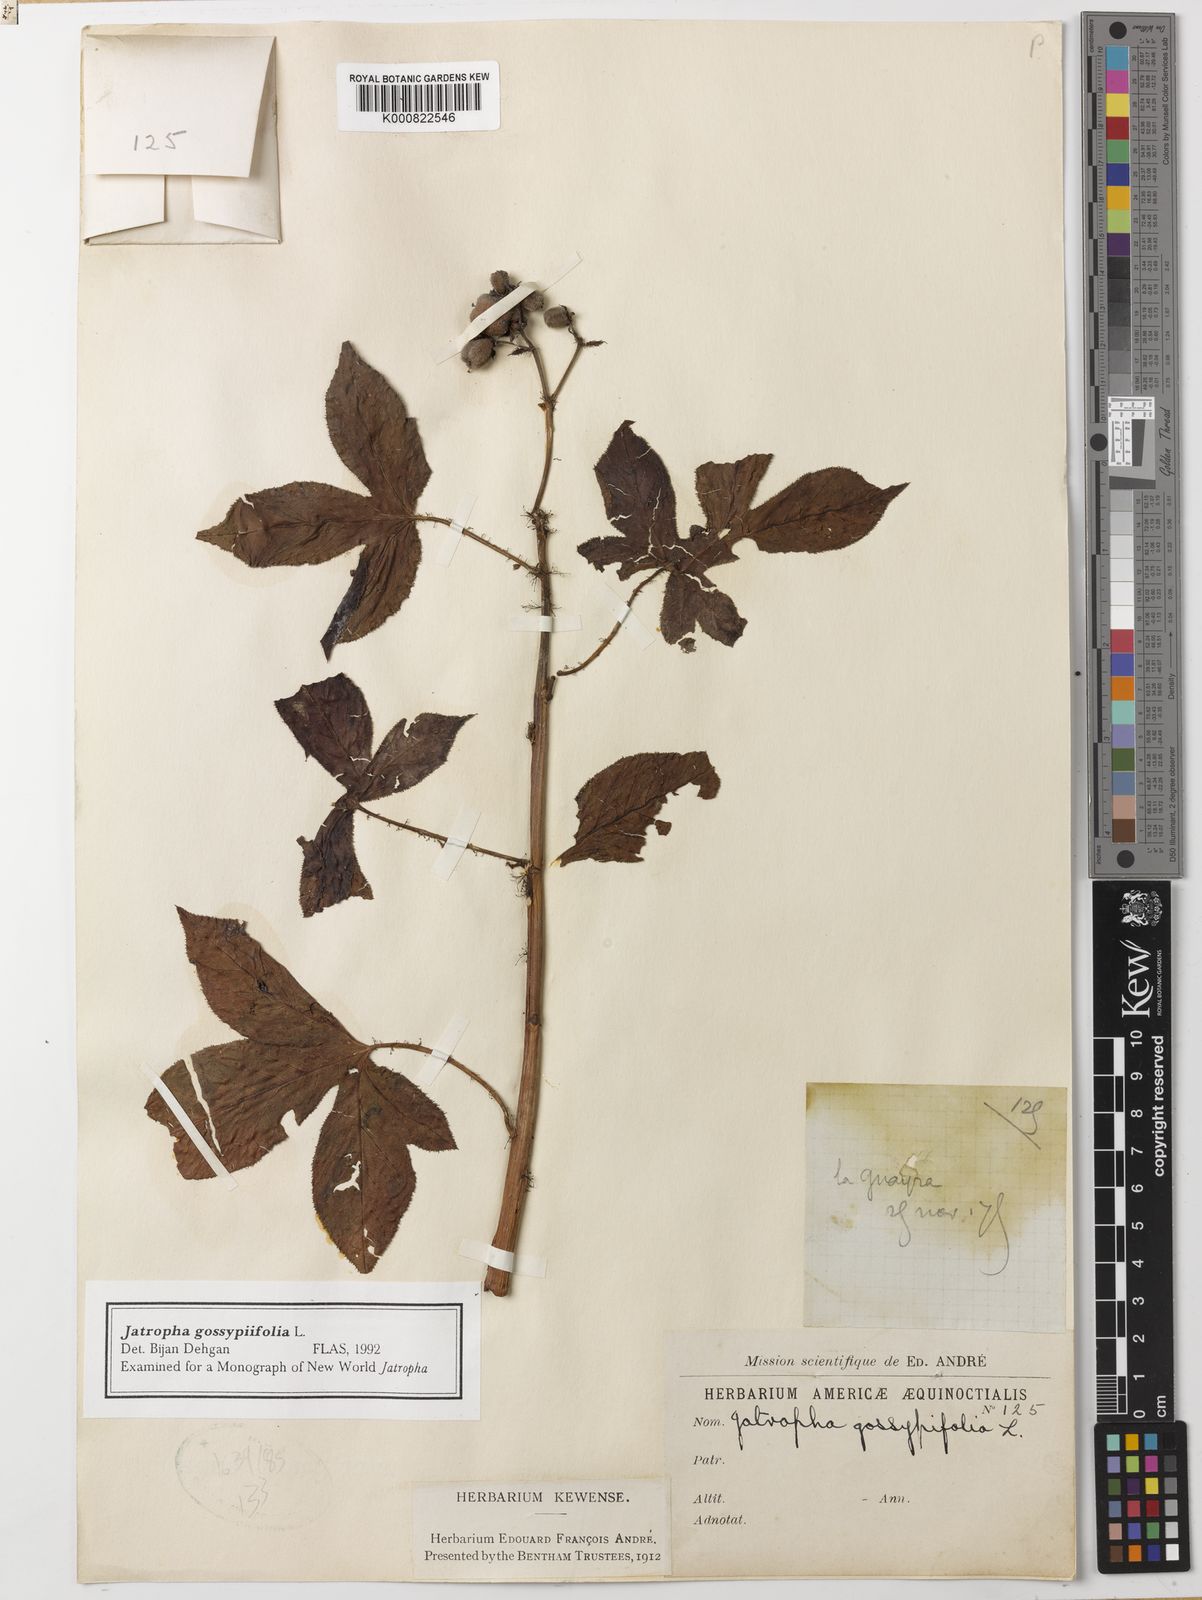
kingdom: Plantae
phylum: Tracheophyta
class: Magnoliopsida
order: Malpighiales
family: Euphorbiaceae
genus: Jatropha
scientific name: Jatropha gossypiifolia
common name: Bellyache bush
